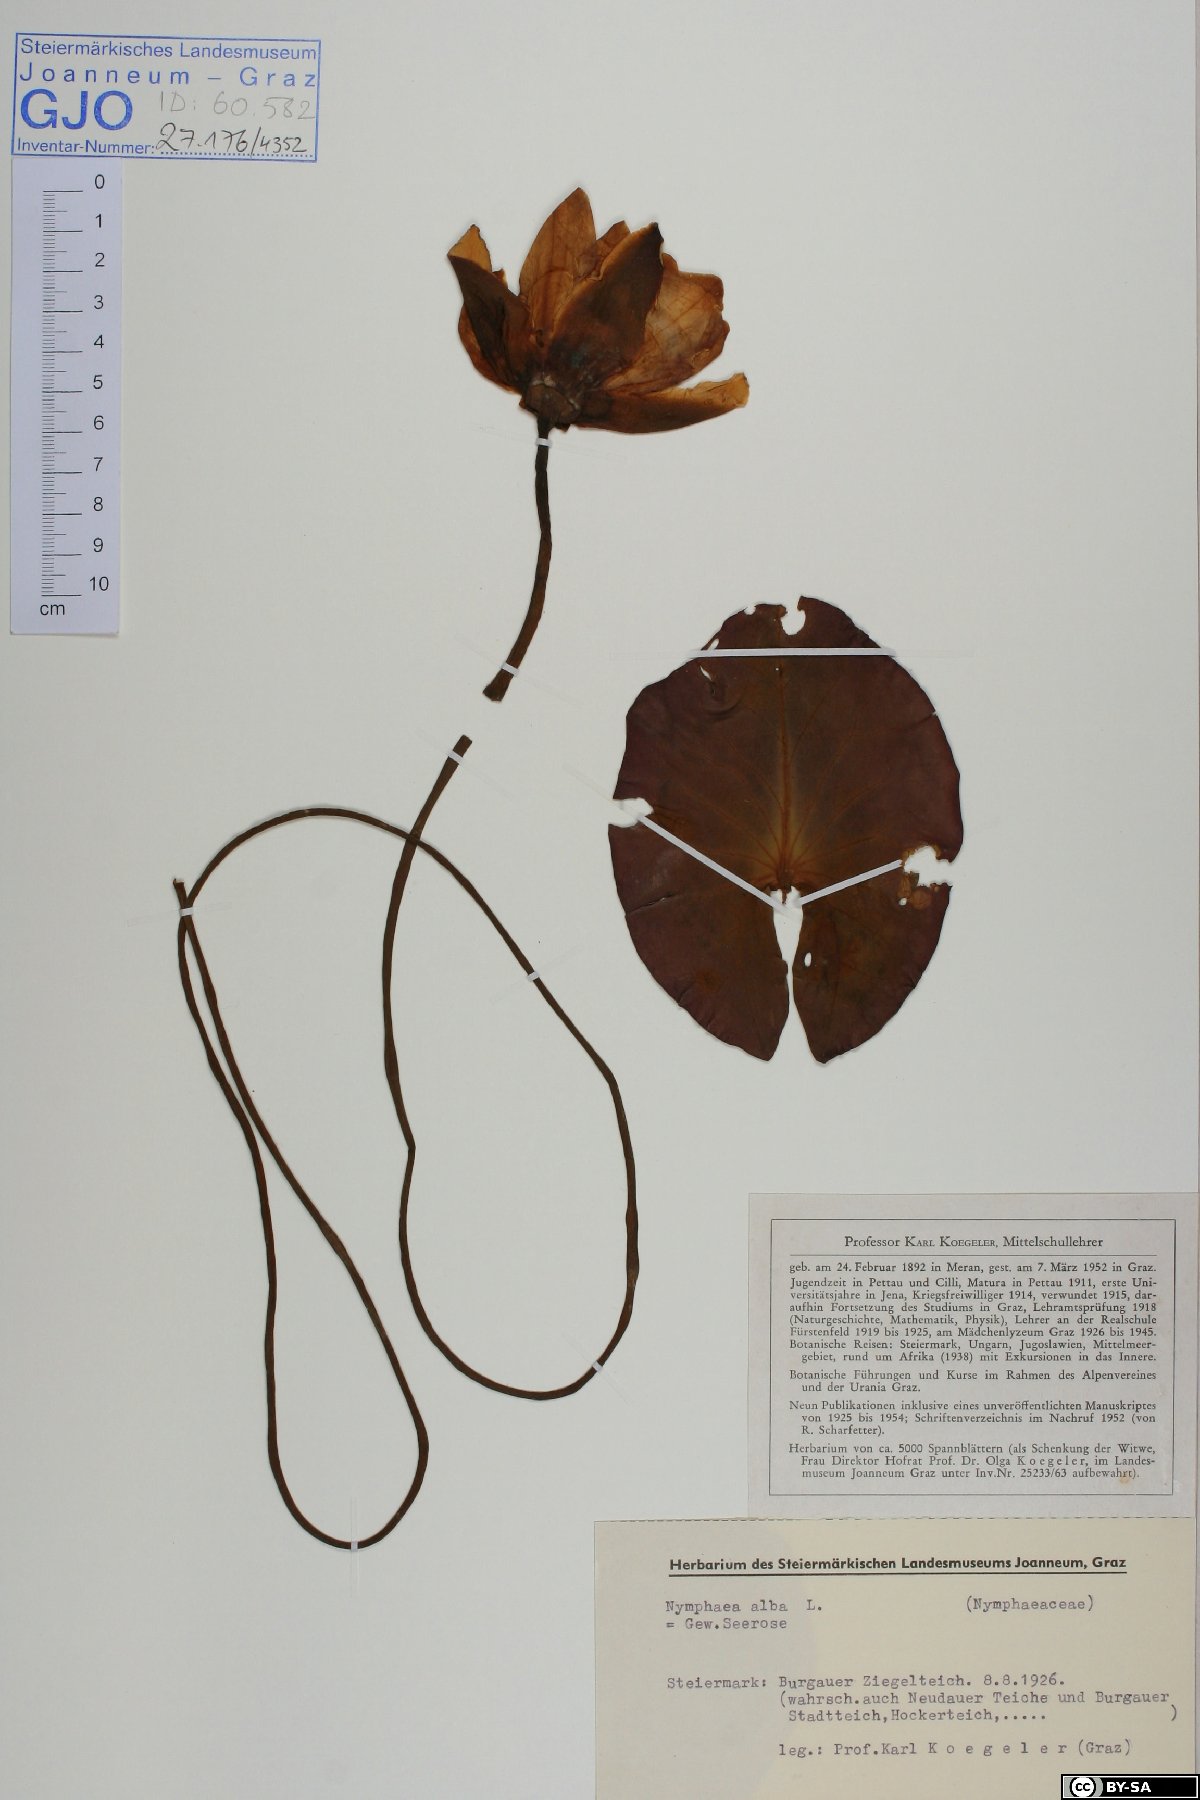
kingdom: Plantae
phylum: Tracheophyta
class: Magnoliopsida
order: Nymphaeales
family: Nymphaeaceae
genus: Nymphaea
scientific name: Nymphaea candida
